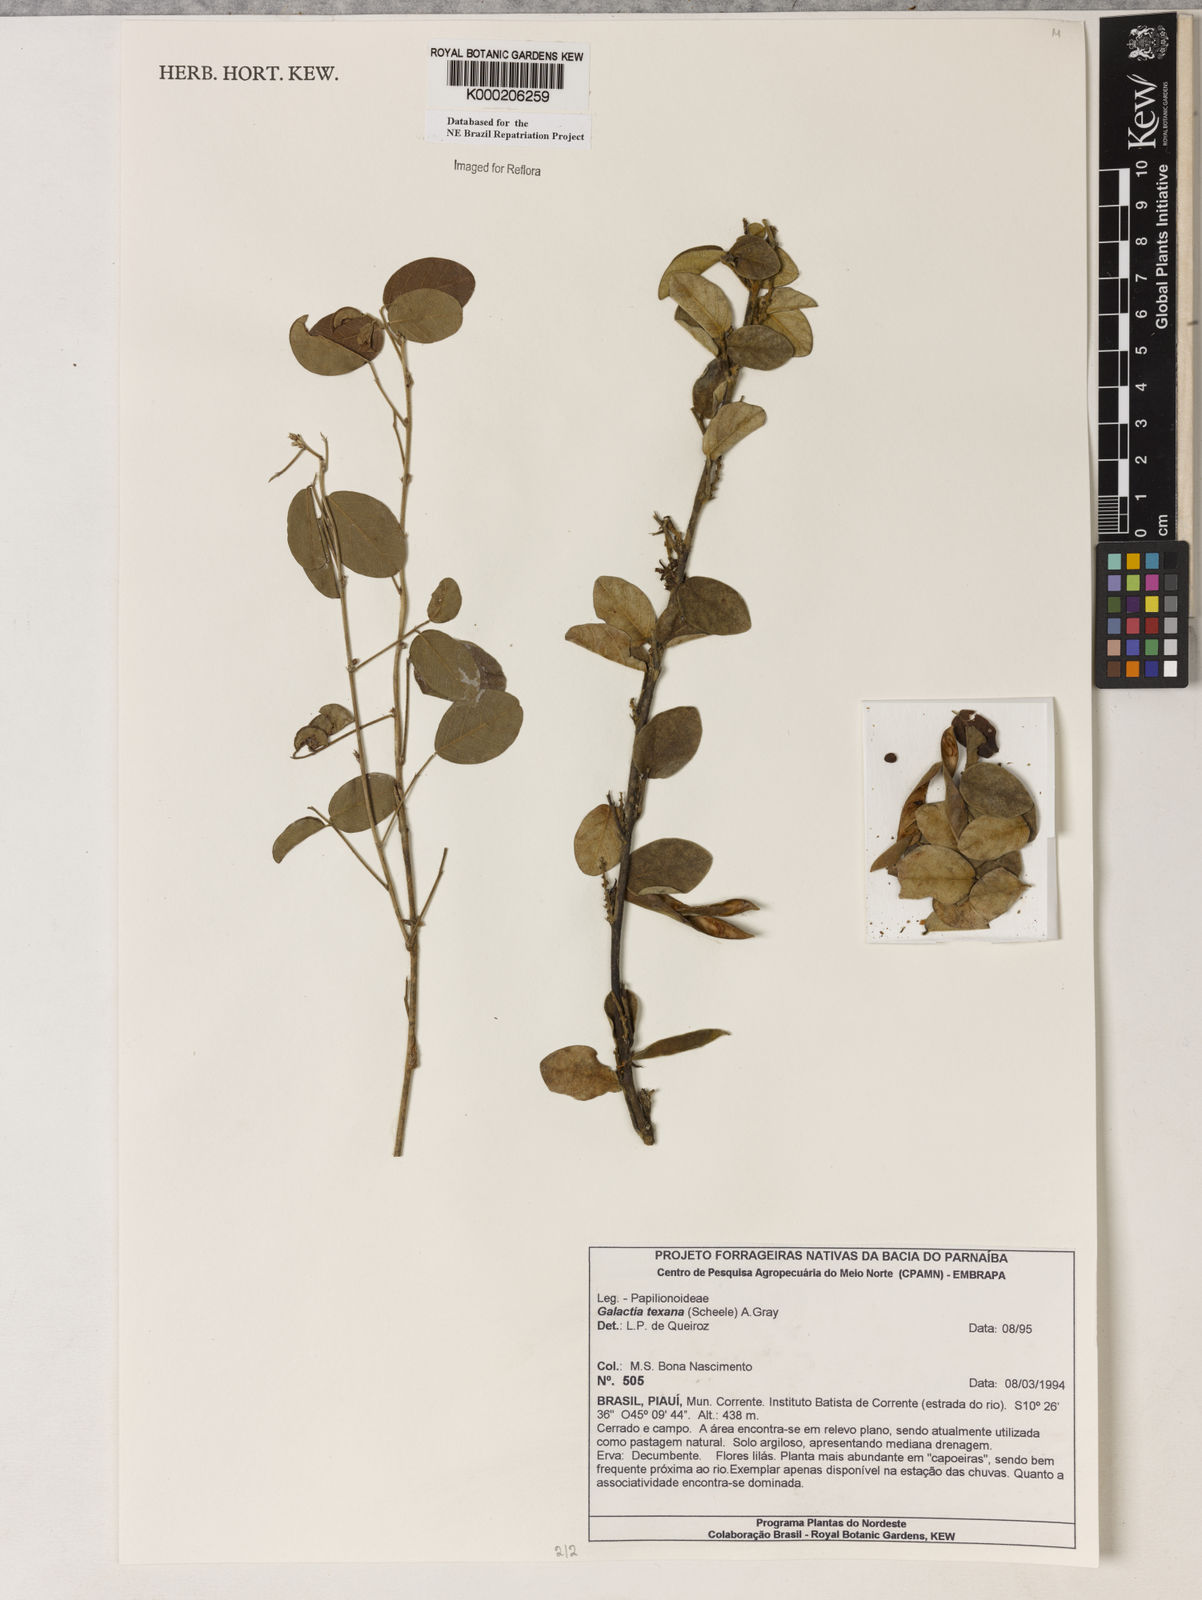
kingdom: Plantae
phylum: Tracheophyta
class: Magnoliopsida
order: Fabales
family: Fabaceae
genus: Galactia
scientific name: Galactia texana
